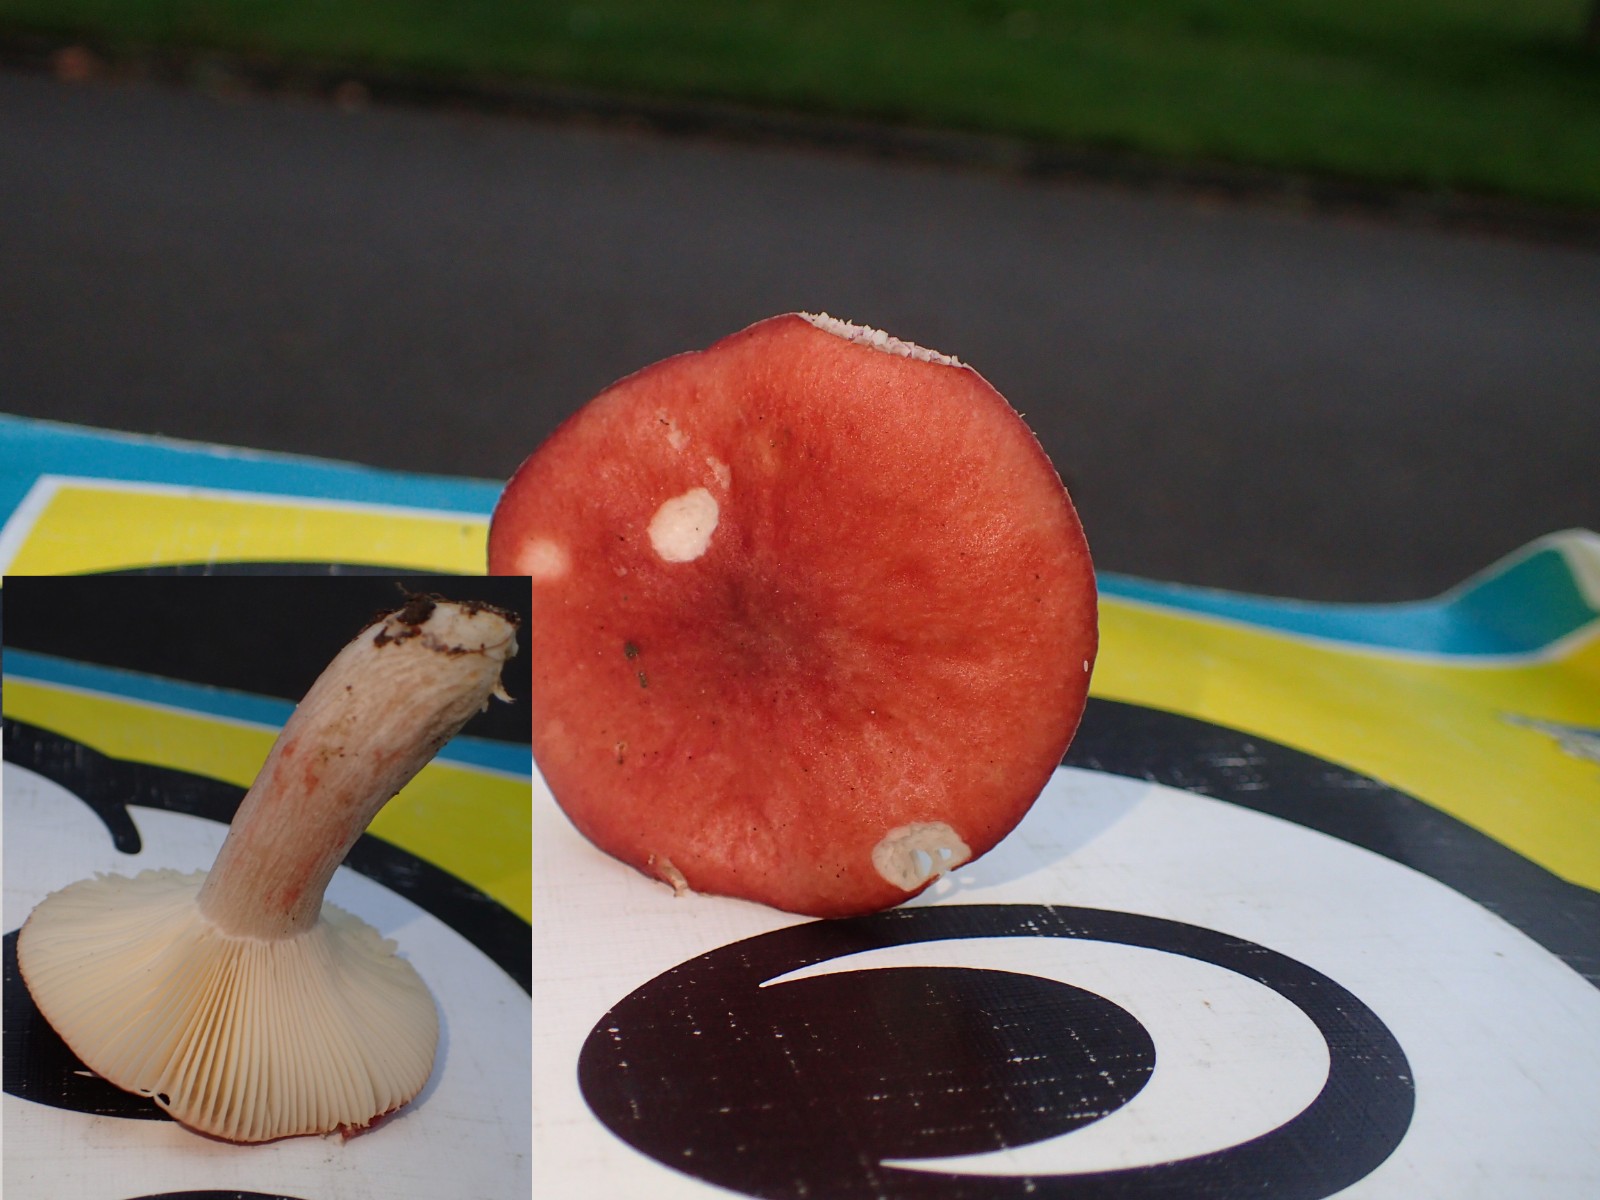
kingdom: Fungi
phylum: Basidiomycota
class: Agaricomycetes
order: Russulales
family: Russulaceae
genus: Russula
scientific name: Russula sanguinea
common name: blodrød skørhat
